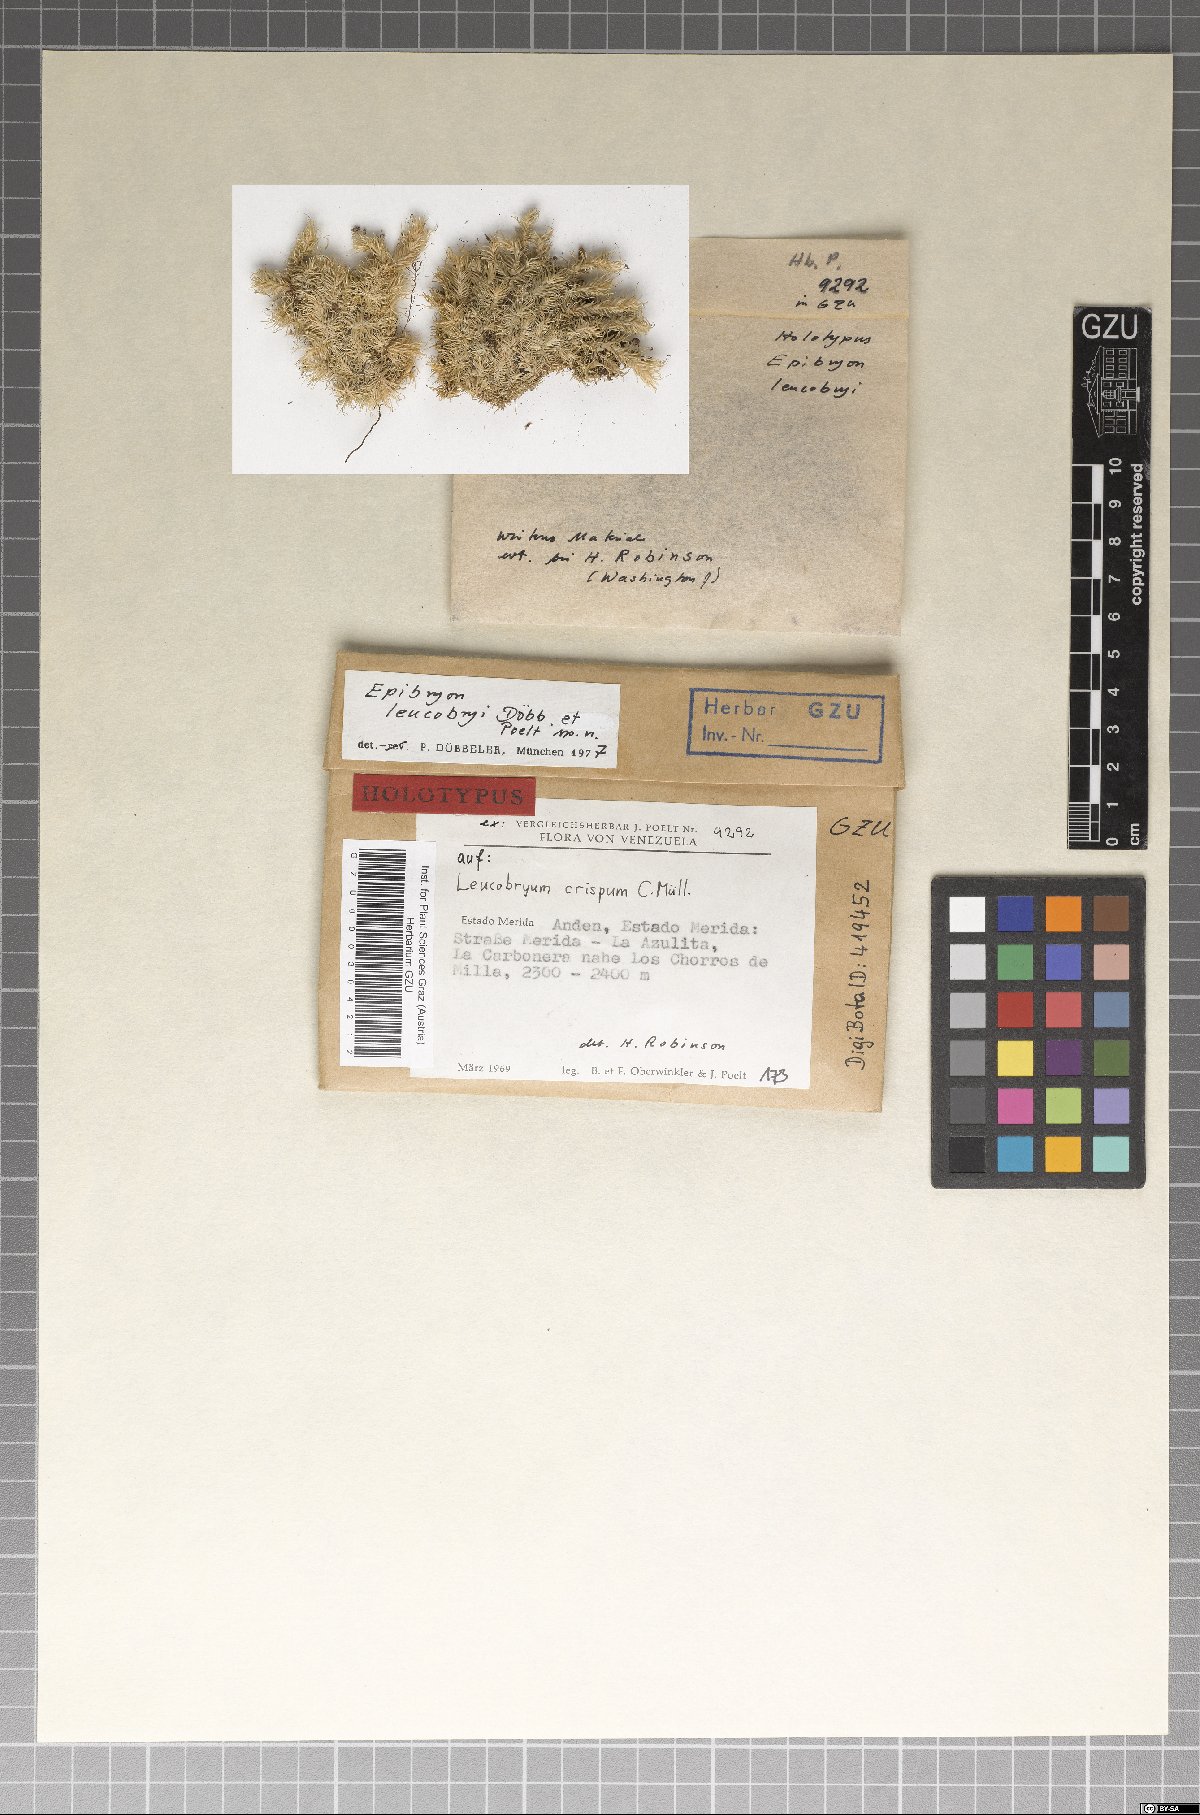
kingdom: Fungi
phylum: Ascomycota
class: Eurotiomycetes
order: Chaetothyriales
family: Epibryaceae
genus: Epibryon
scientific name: Epibryon leucobryi
